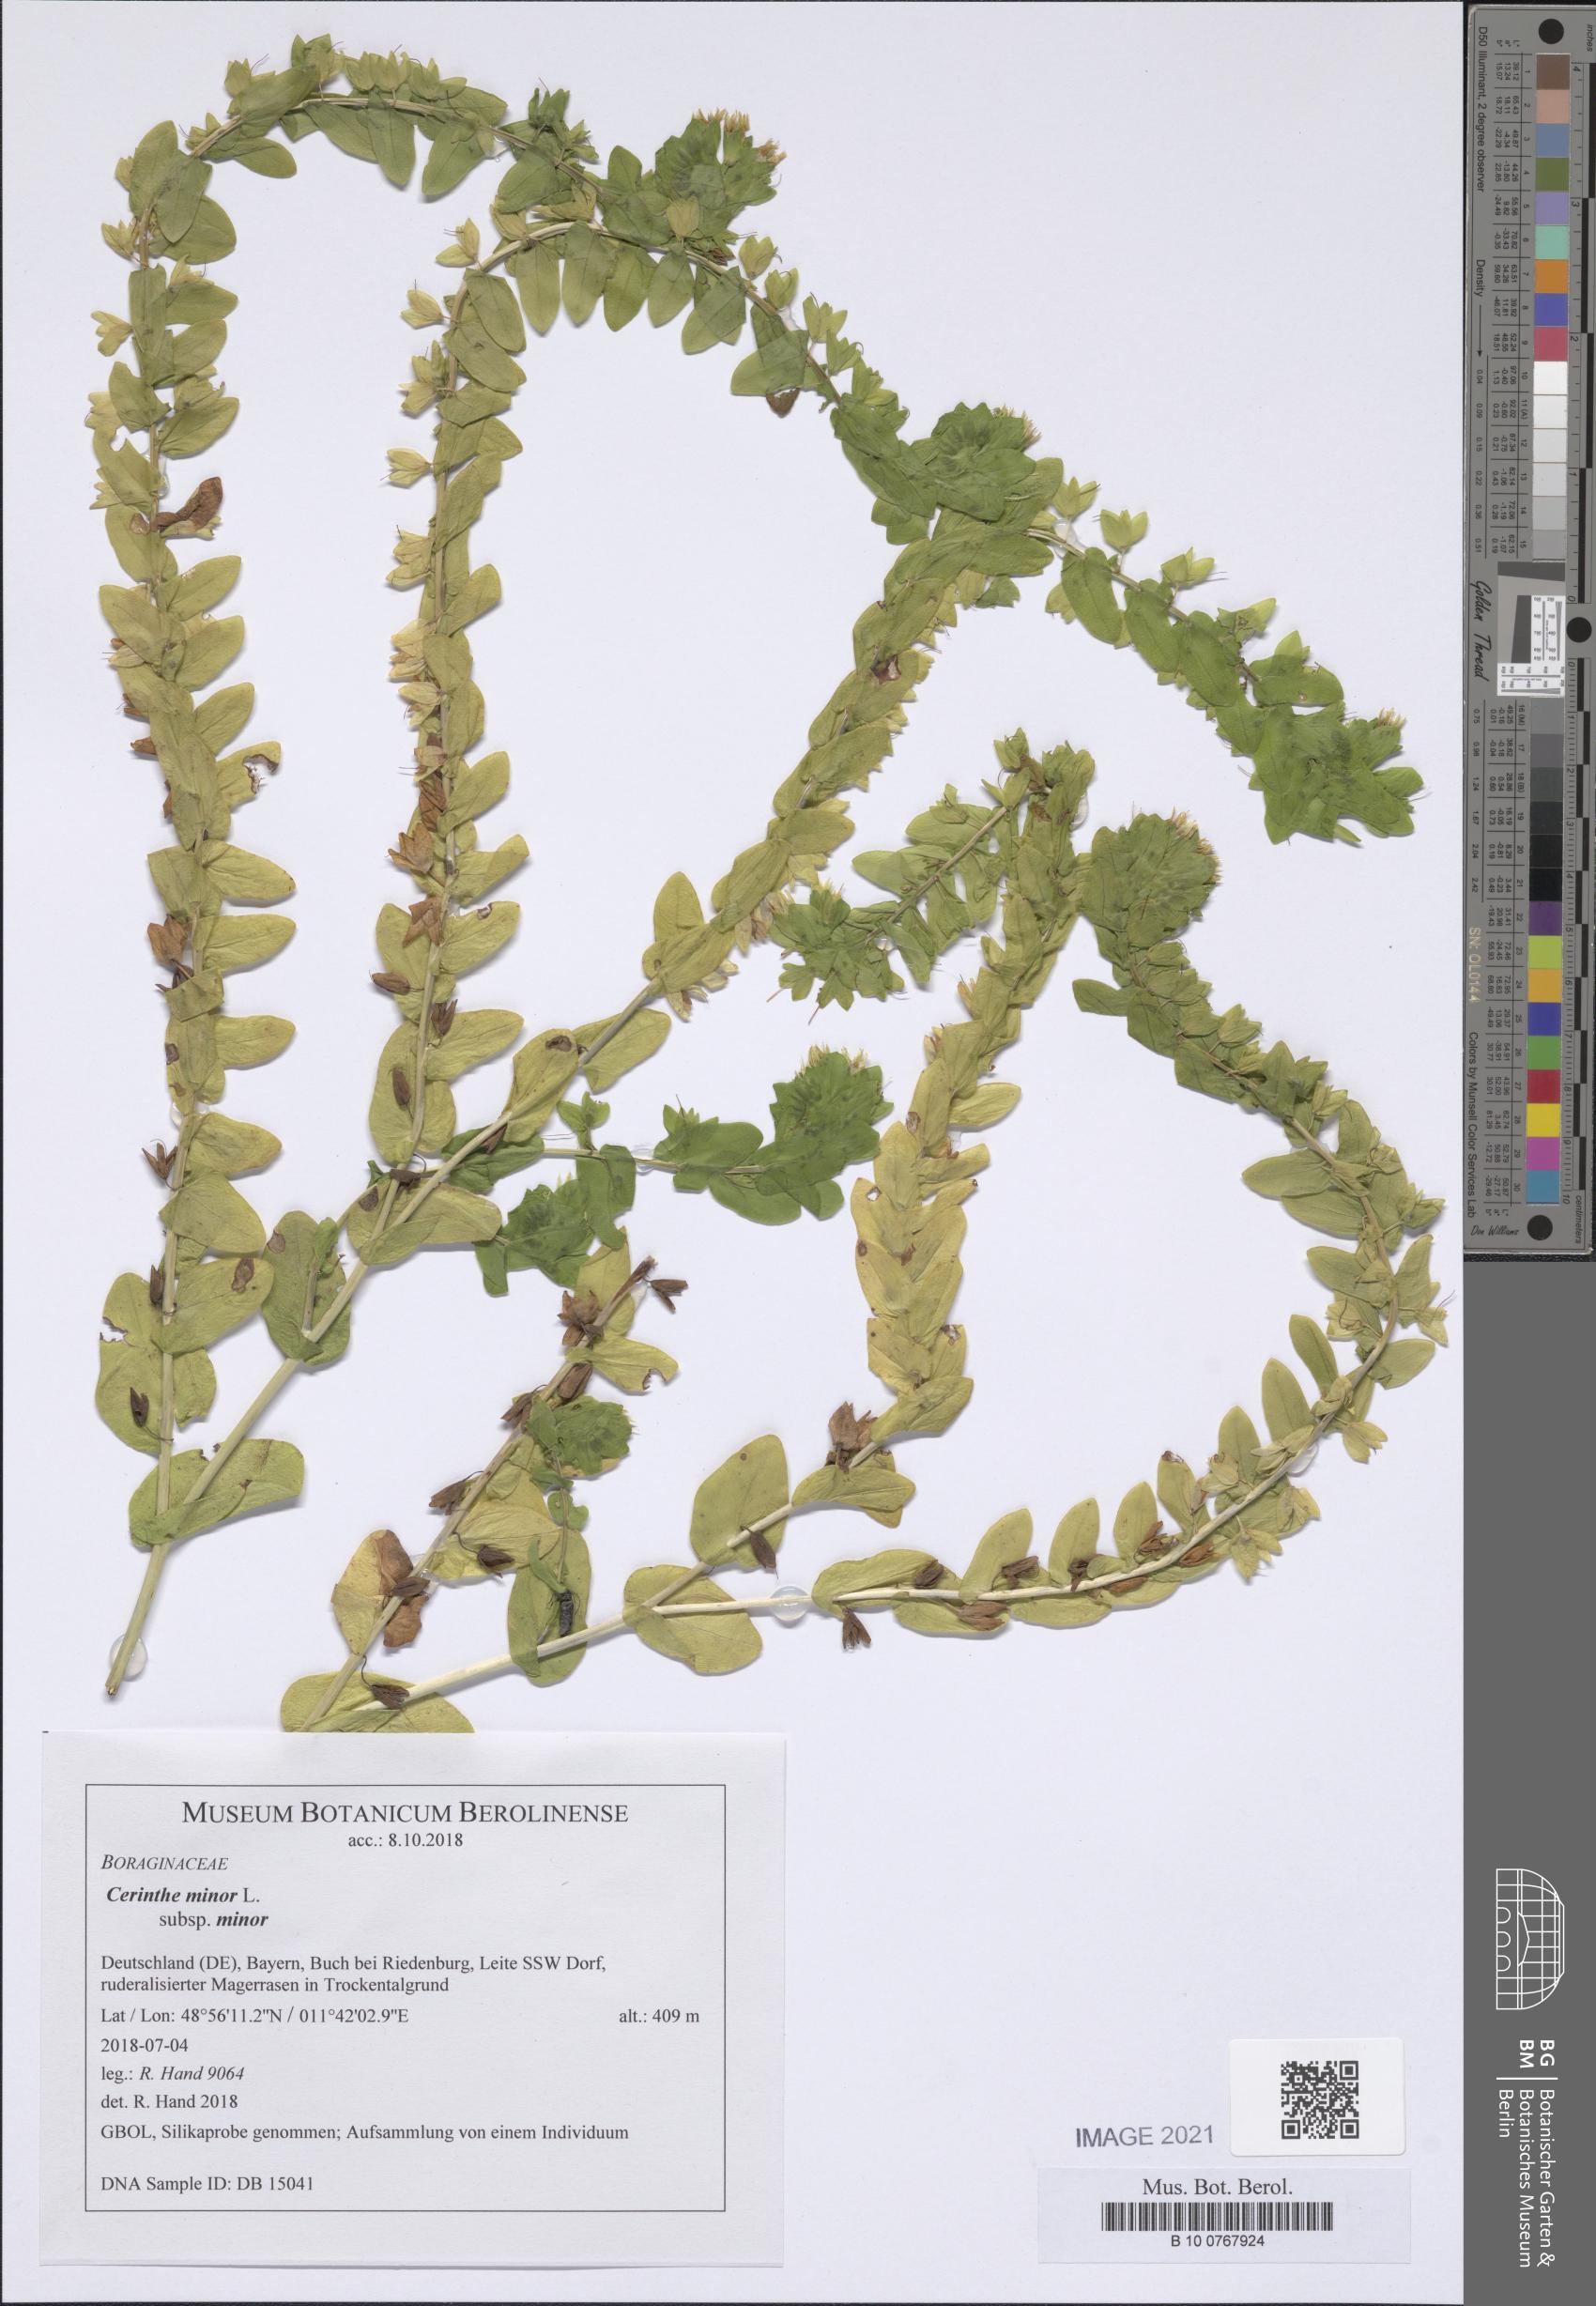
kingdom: Plantae
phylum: Tracheophyta
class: Magnoliopsida
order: Boraginales
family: Boraginaceae
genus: Cerinthe
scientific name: Cerinthe minor
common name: Lesser honeywort
